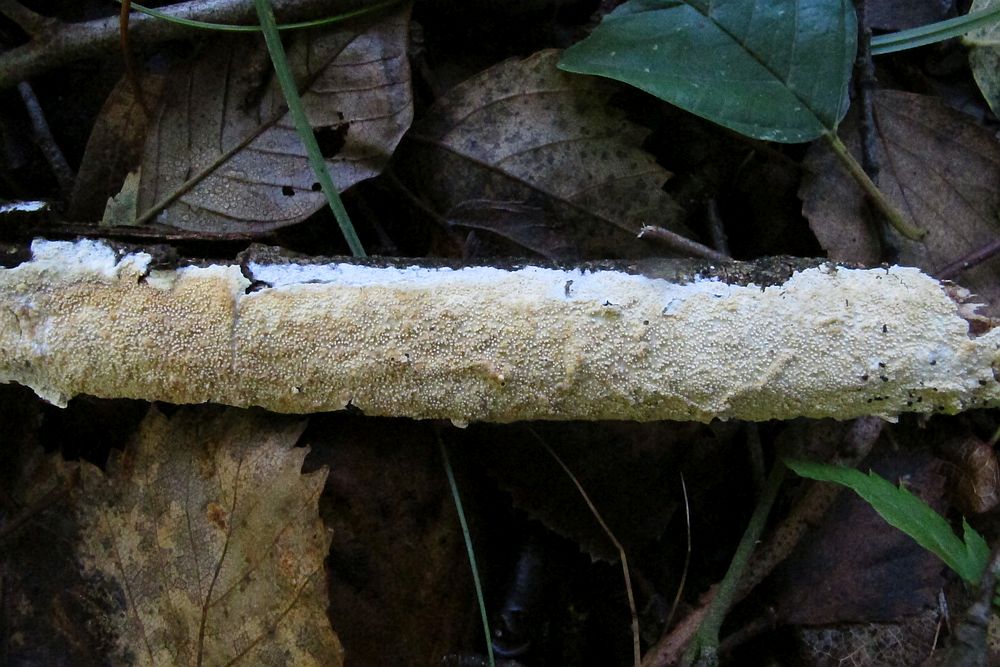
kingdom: Fungi
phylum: Basidiomycota
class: Agaricomycetes
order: Corticiales
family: Corticiaceae
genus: Lyomyces
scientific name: Lyomyces crustosus
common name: vortet hyldehinde
